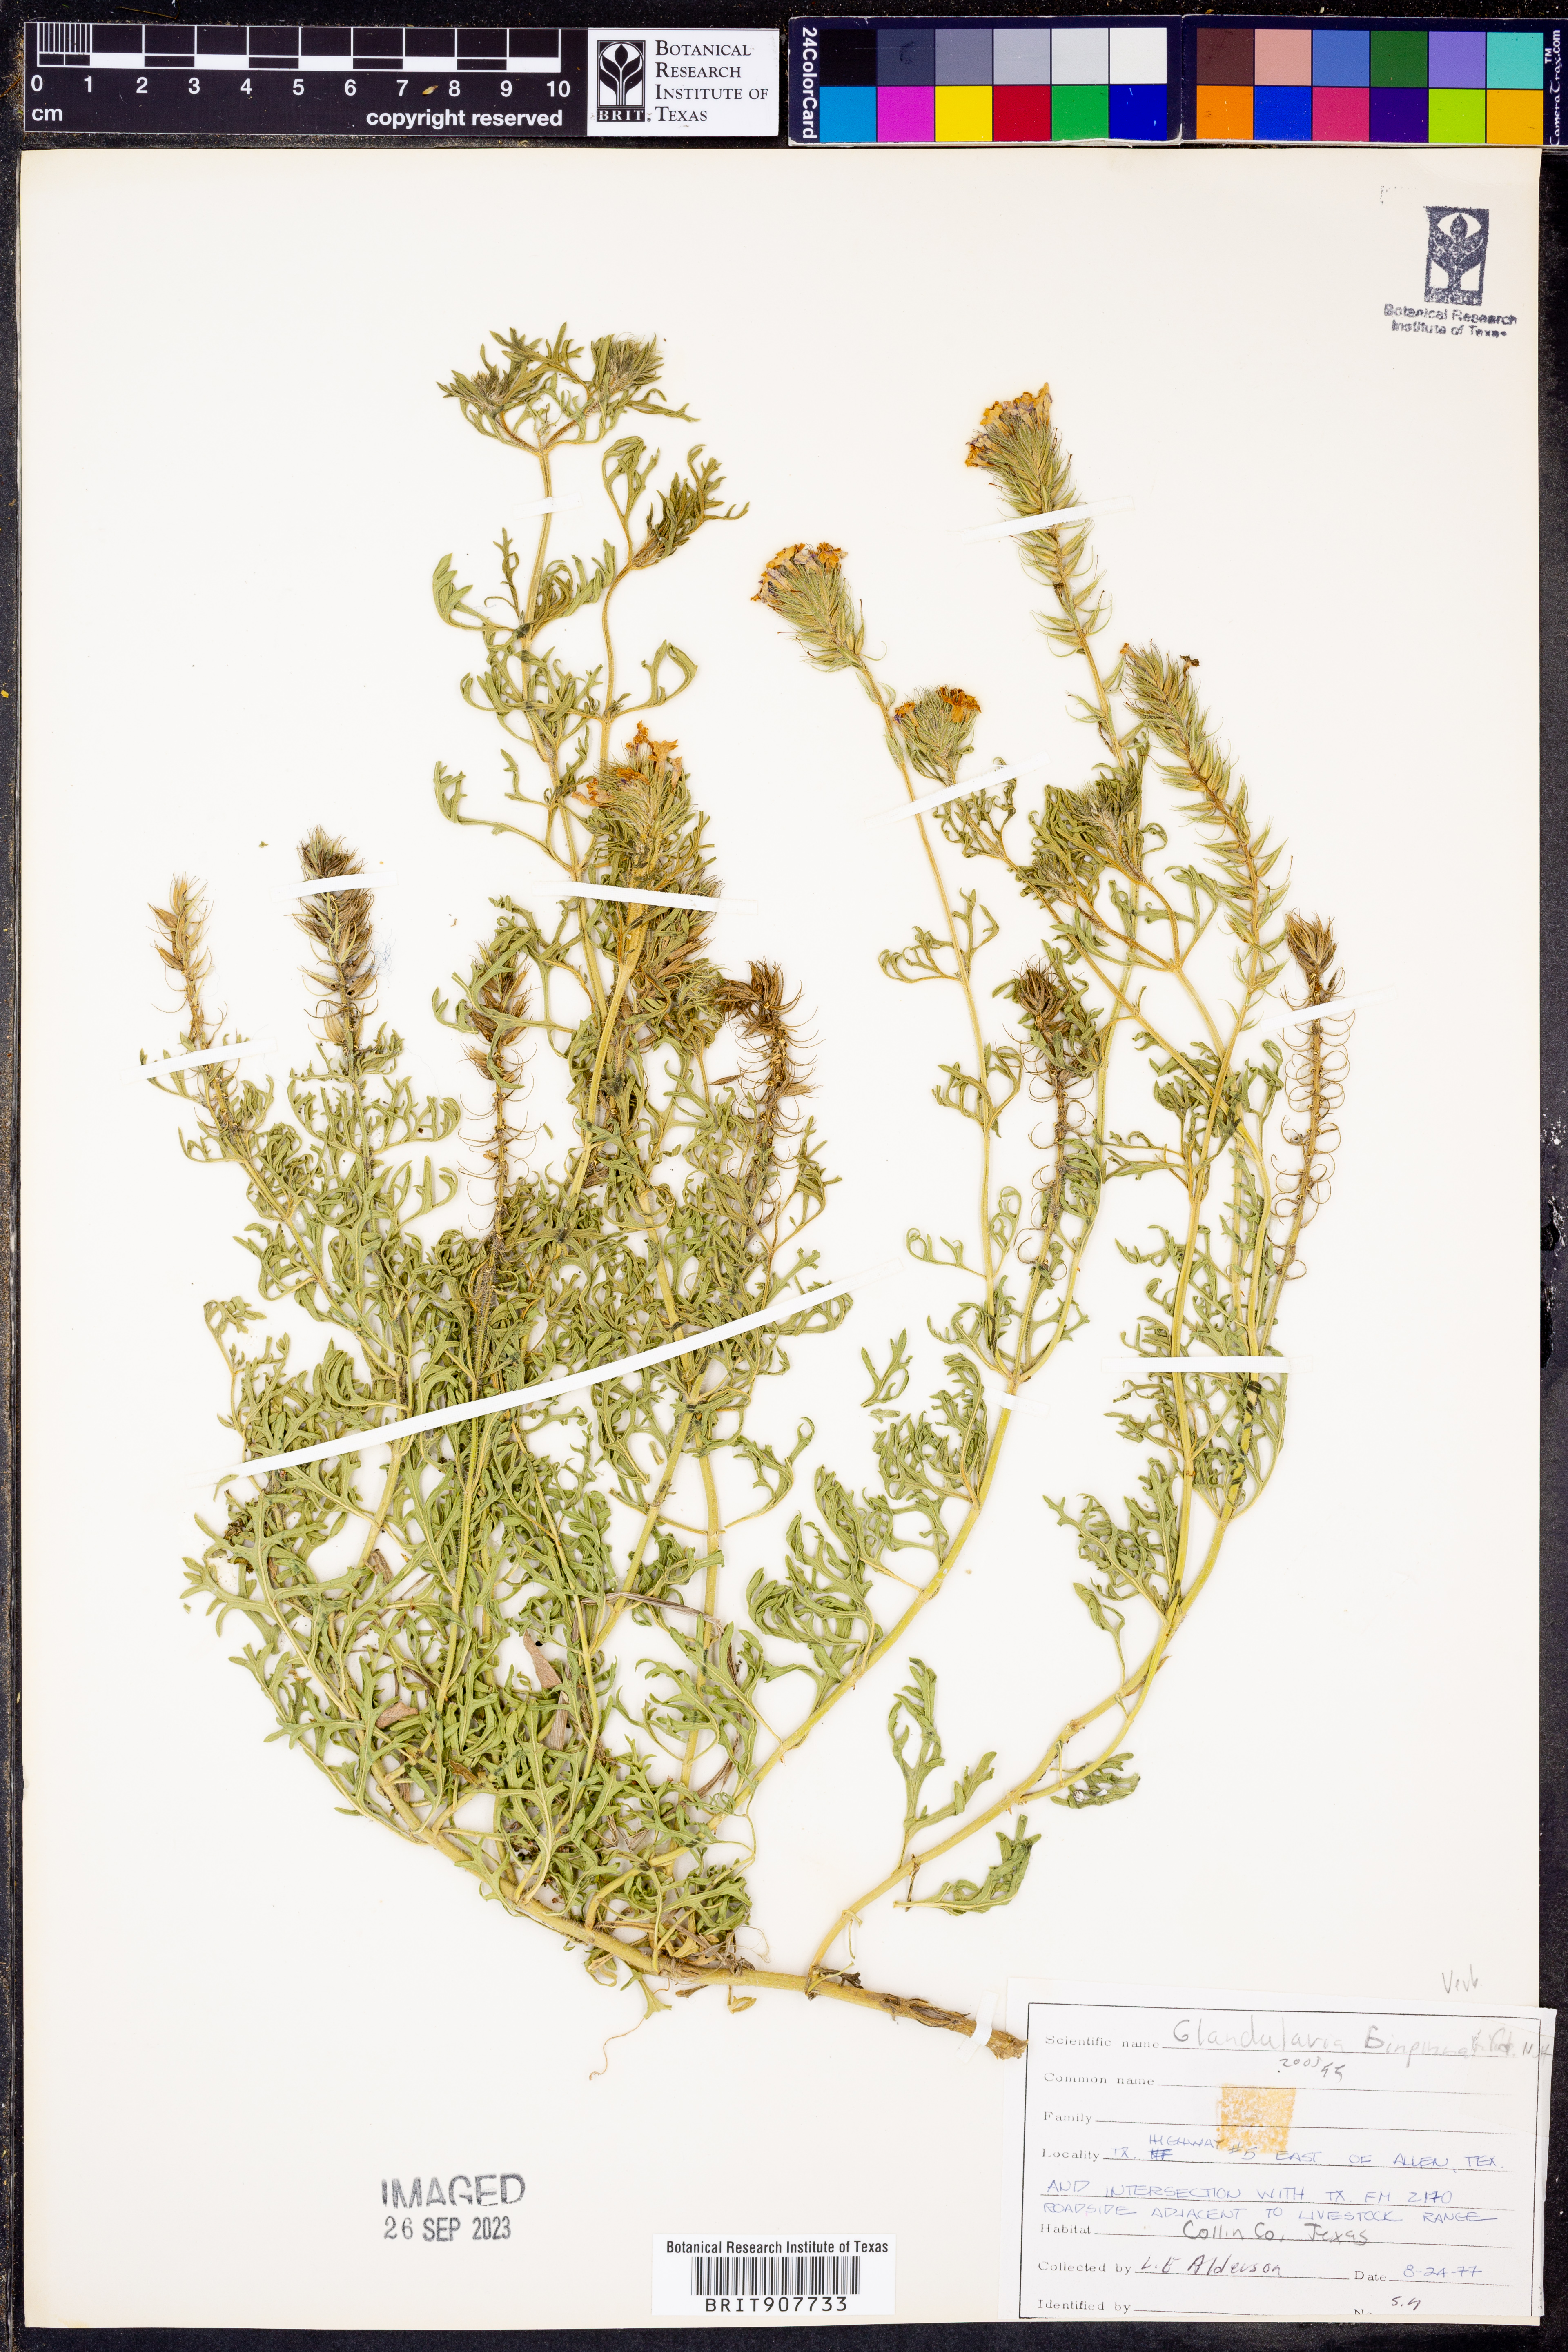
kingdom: Plantae
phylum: Tracheophyta
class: Magnoliopsida
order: Lamiales
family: Verbenaceae
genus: Verbena
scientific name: Verbena bipinnatifida
